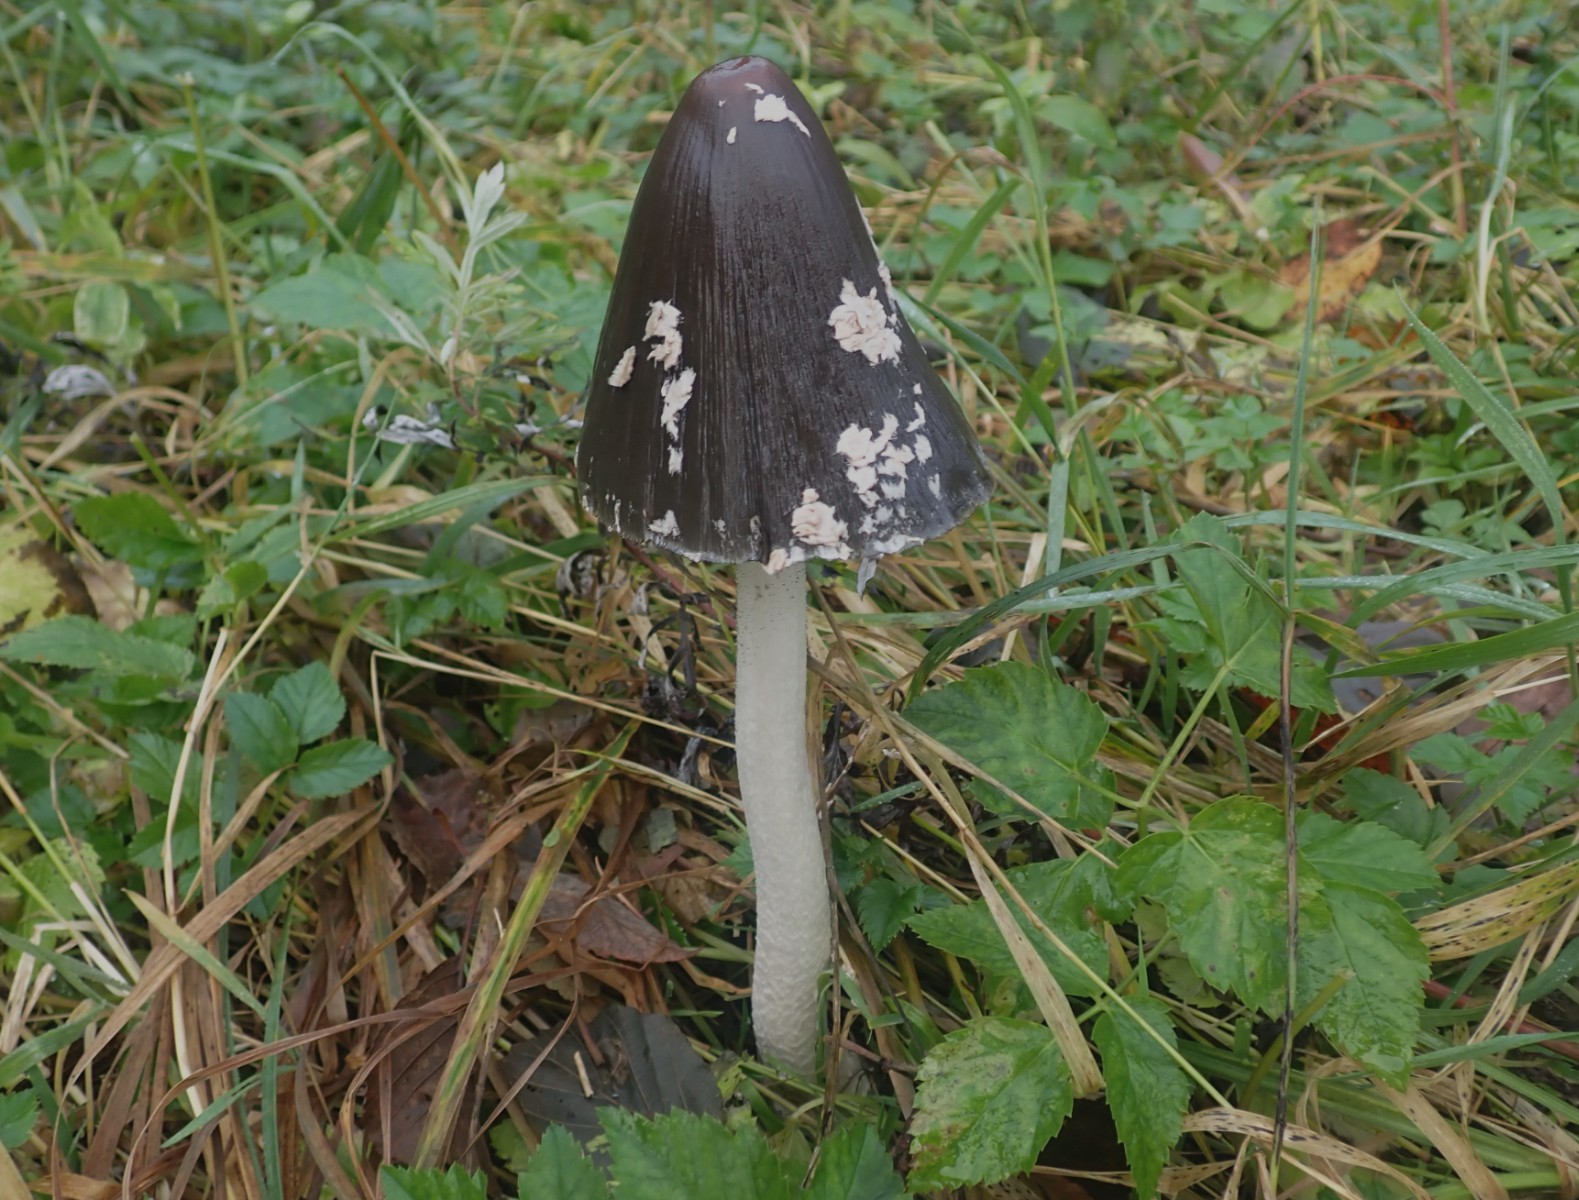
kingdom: Fungi
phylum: Basidiomycota
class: Agaricomycetes
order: Agaricales
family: Psathyrellaceae
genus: Coprinopsis
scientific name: Coprinopsis picacea
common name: skade-blækhat
